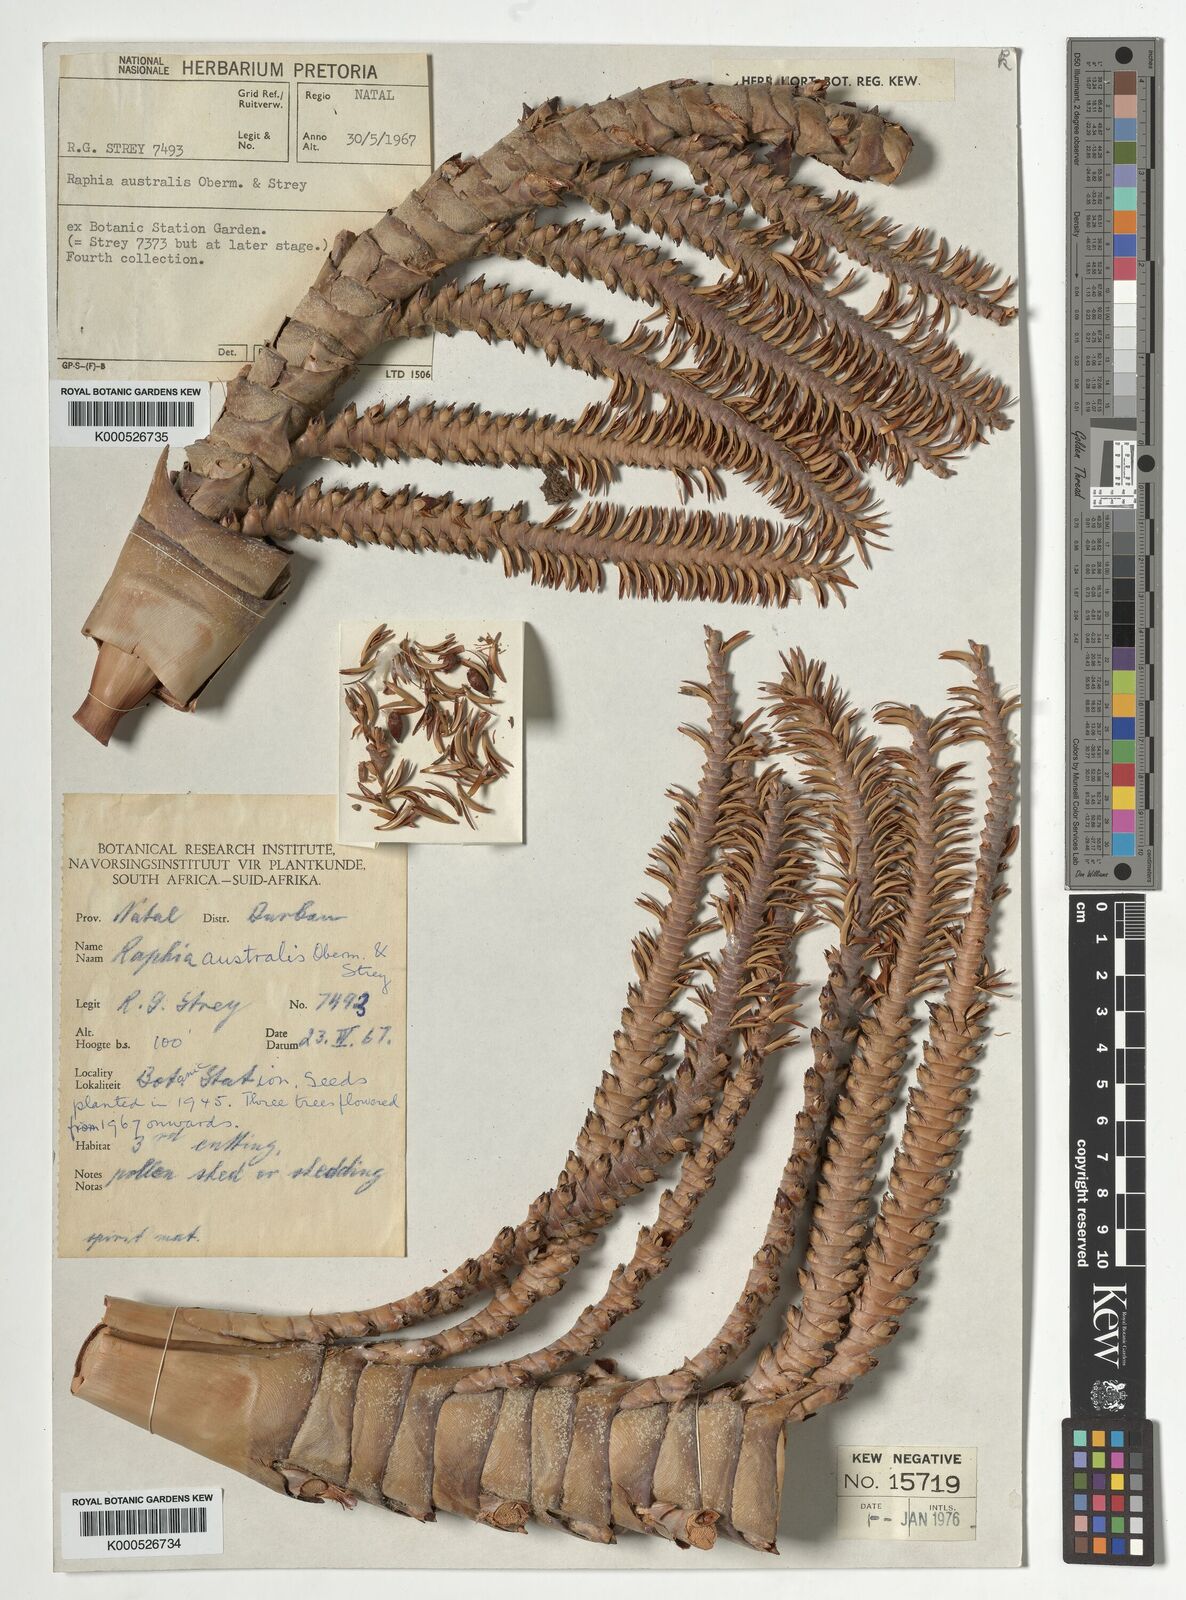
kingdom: Plantae
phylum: Tracheophyta
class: Liliopsida
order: Arecales
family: Arecaceae
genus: Raphia
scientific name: Raphia australis
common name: Giant palm
